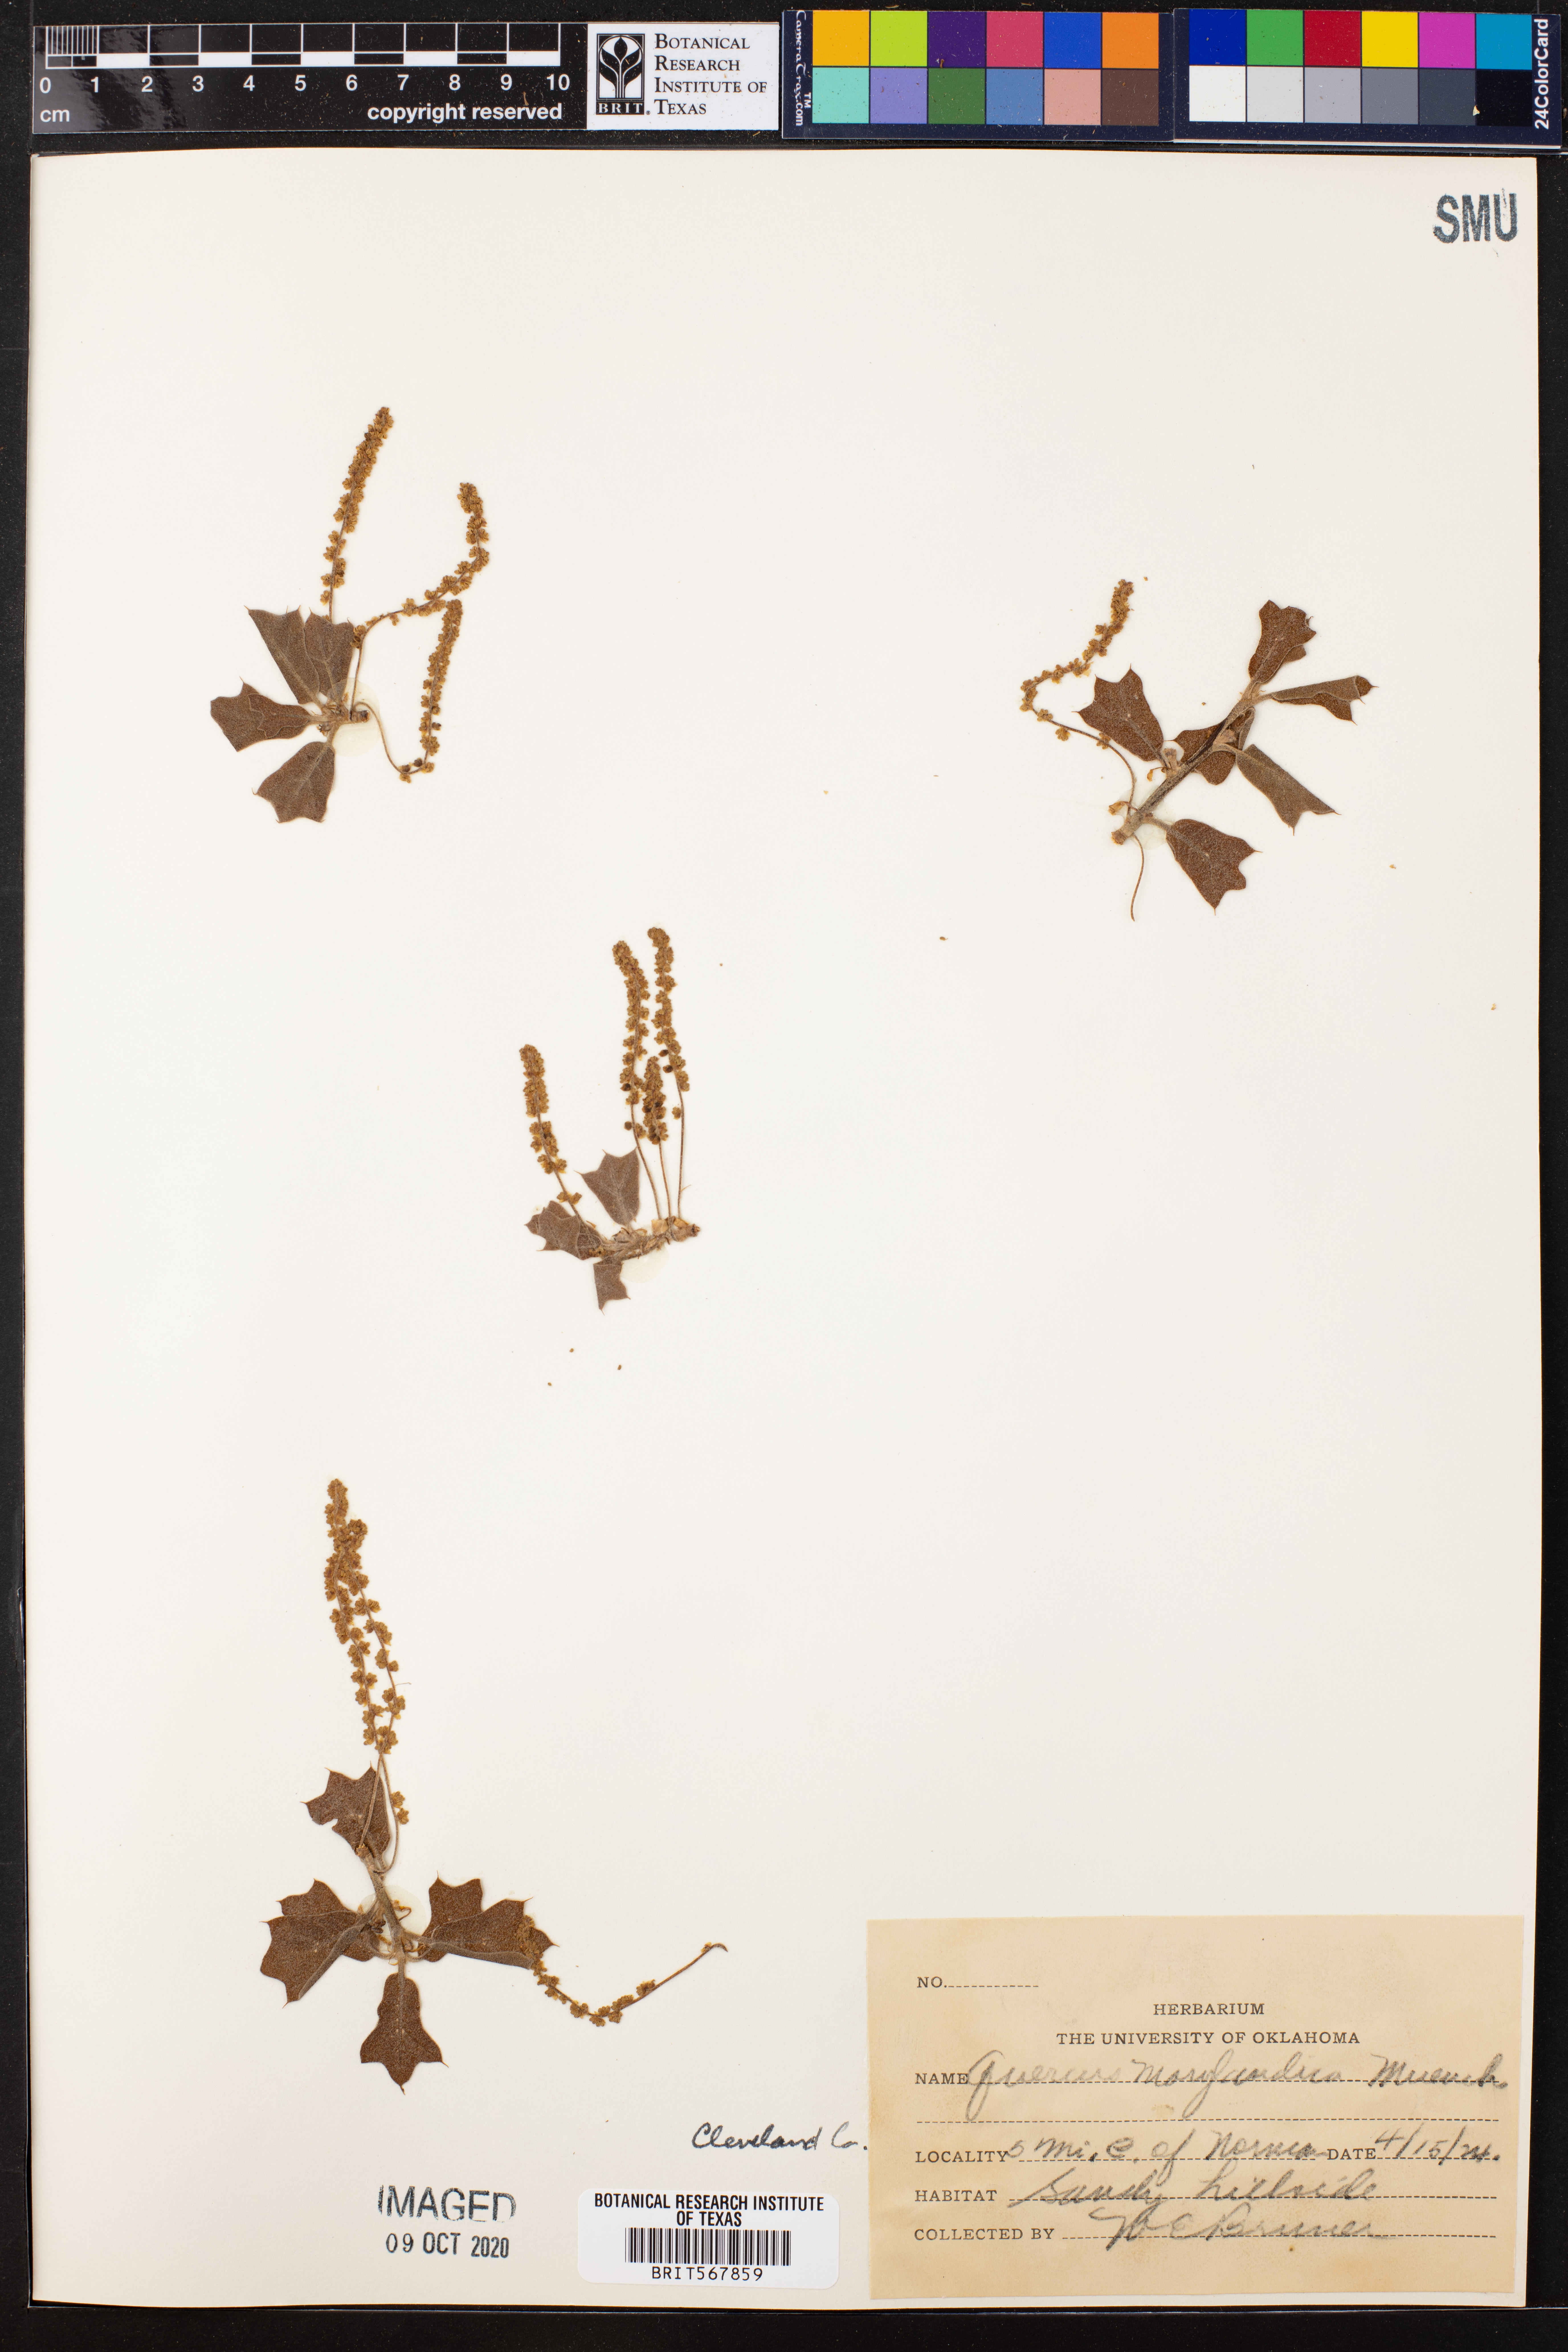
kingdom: Plantae
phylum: Tracheophyta
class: Magnoliopsida
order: Fagales
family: Fagaceae
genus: Quercus
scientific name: Quercus marilandica
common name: Blackjack oak
